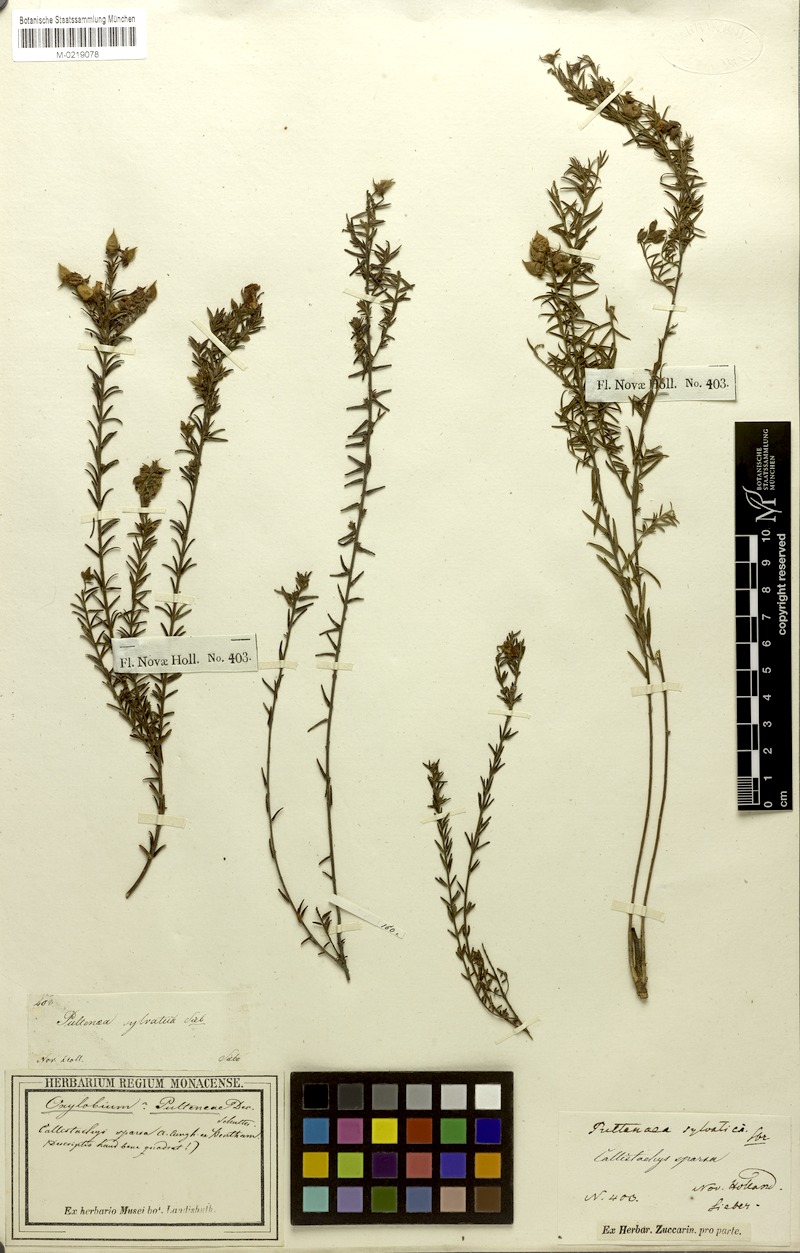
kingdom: Plantae
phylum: Tracheophyta
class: Magnoliopsida
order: Fabales
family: Fabaceae
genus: Oxylobium
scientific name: Oxylobium pulteneae
